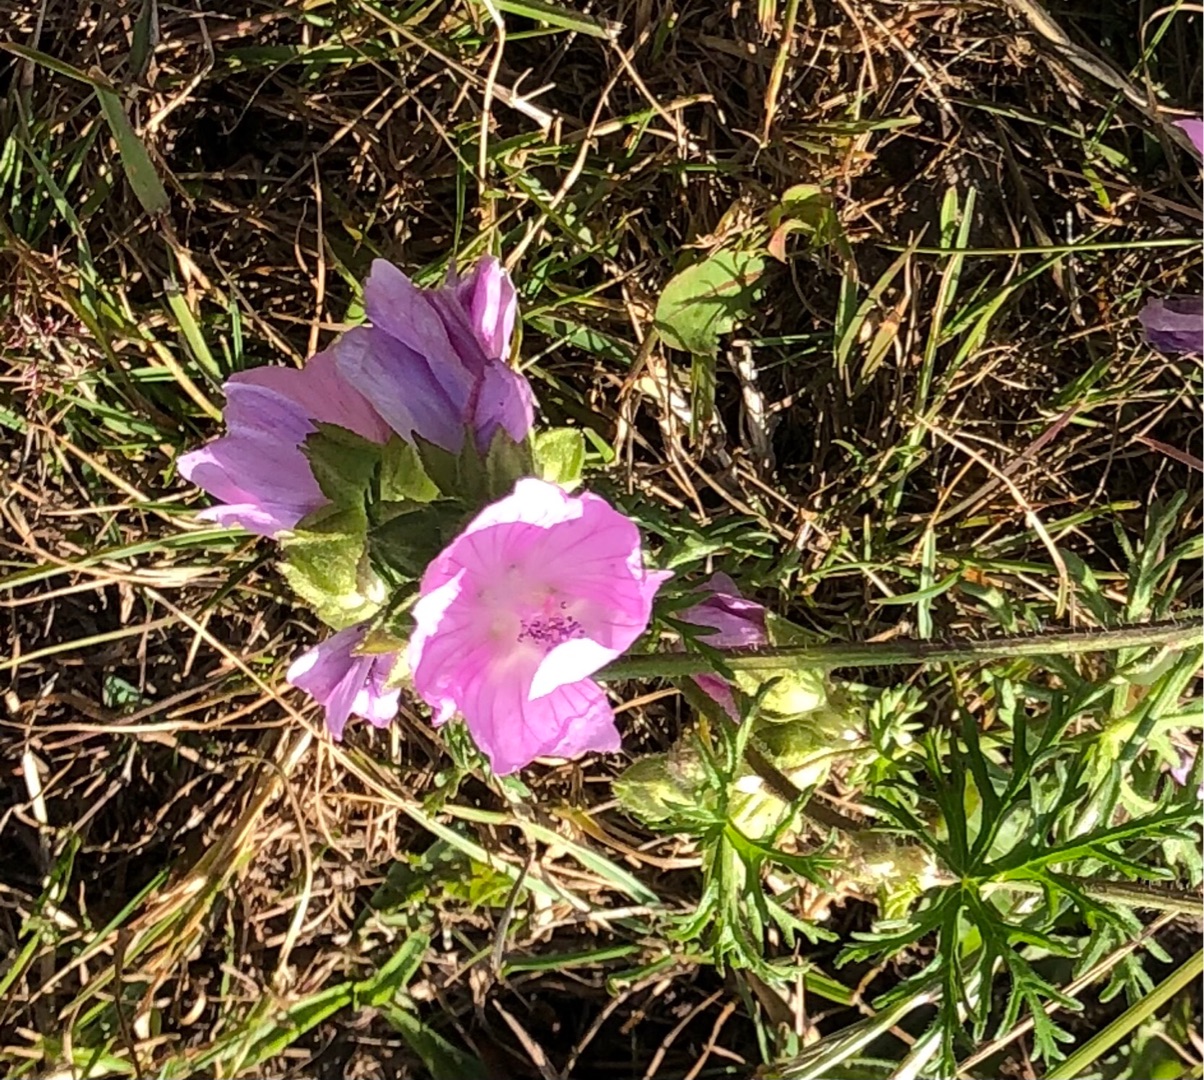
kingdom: Plantae
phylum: Tracheophyta
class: Magnoliopsida
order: Malvales
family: Malvaceae
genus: Malva
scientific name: Malva moschata
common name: Moskus-katost
